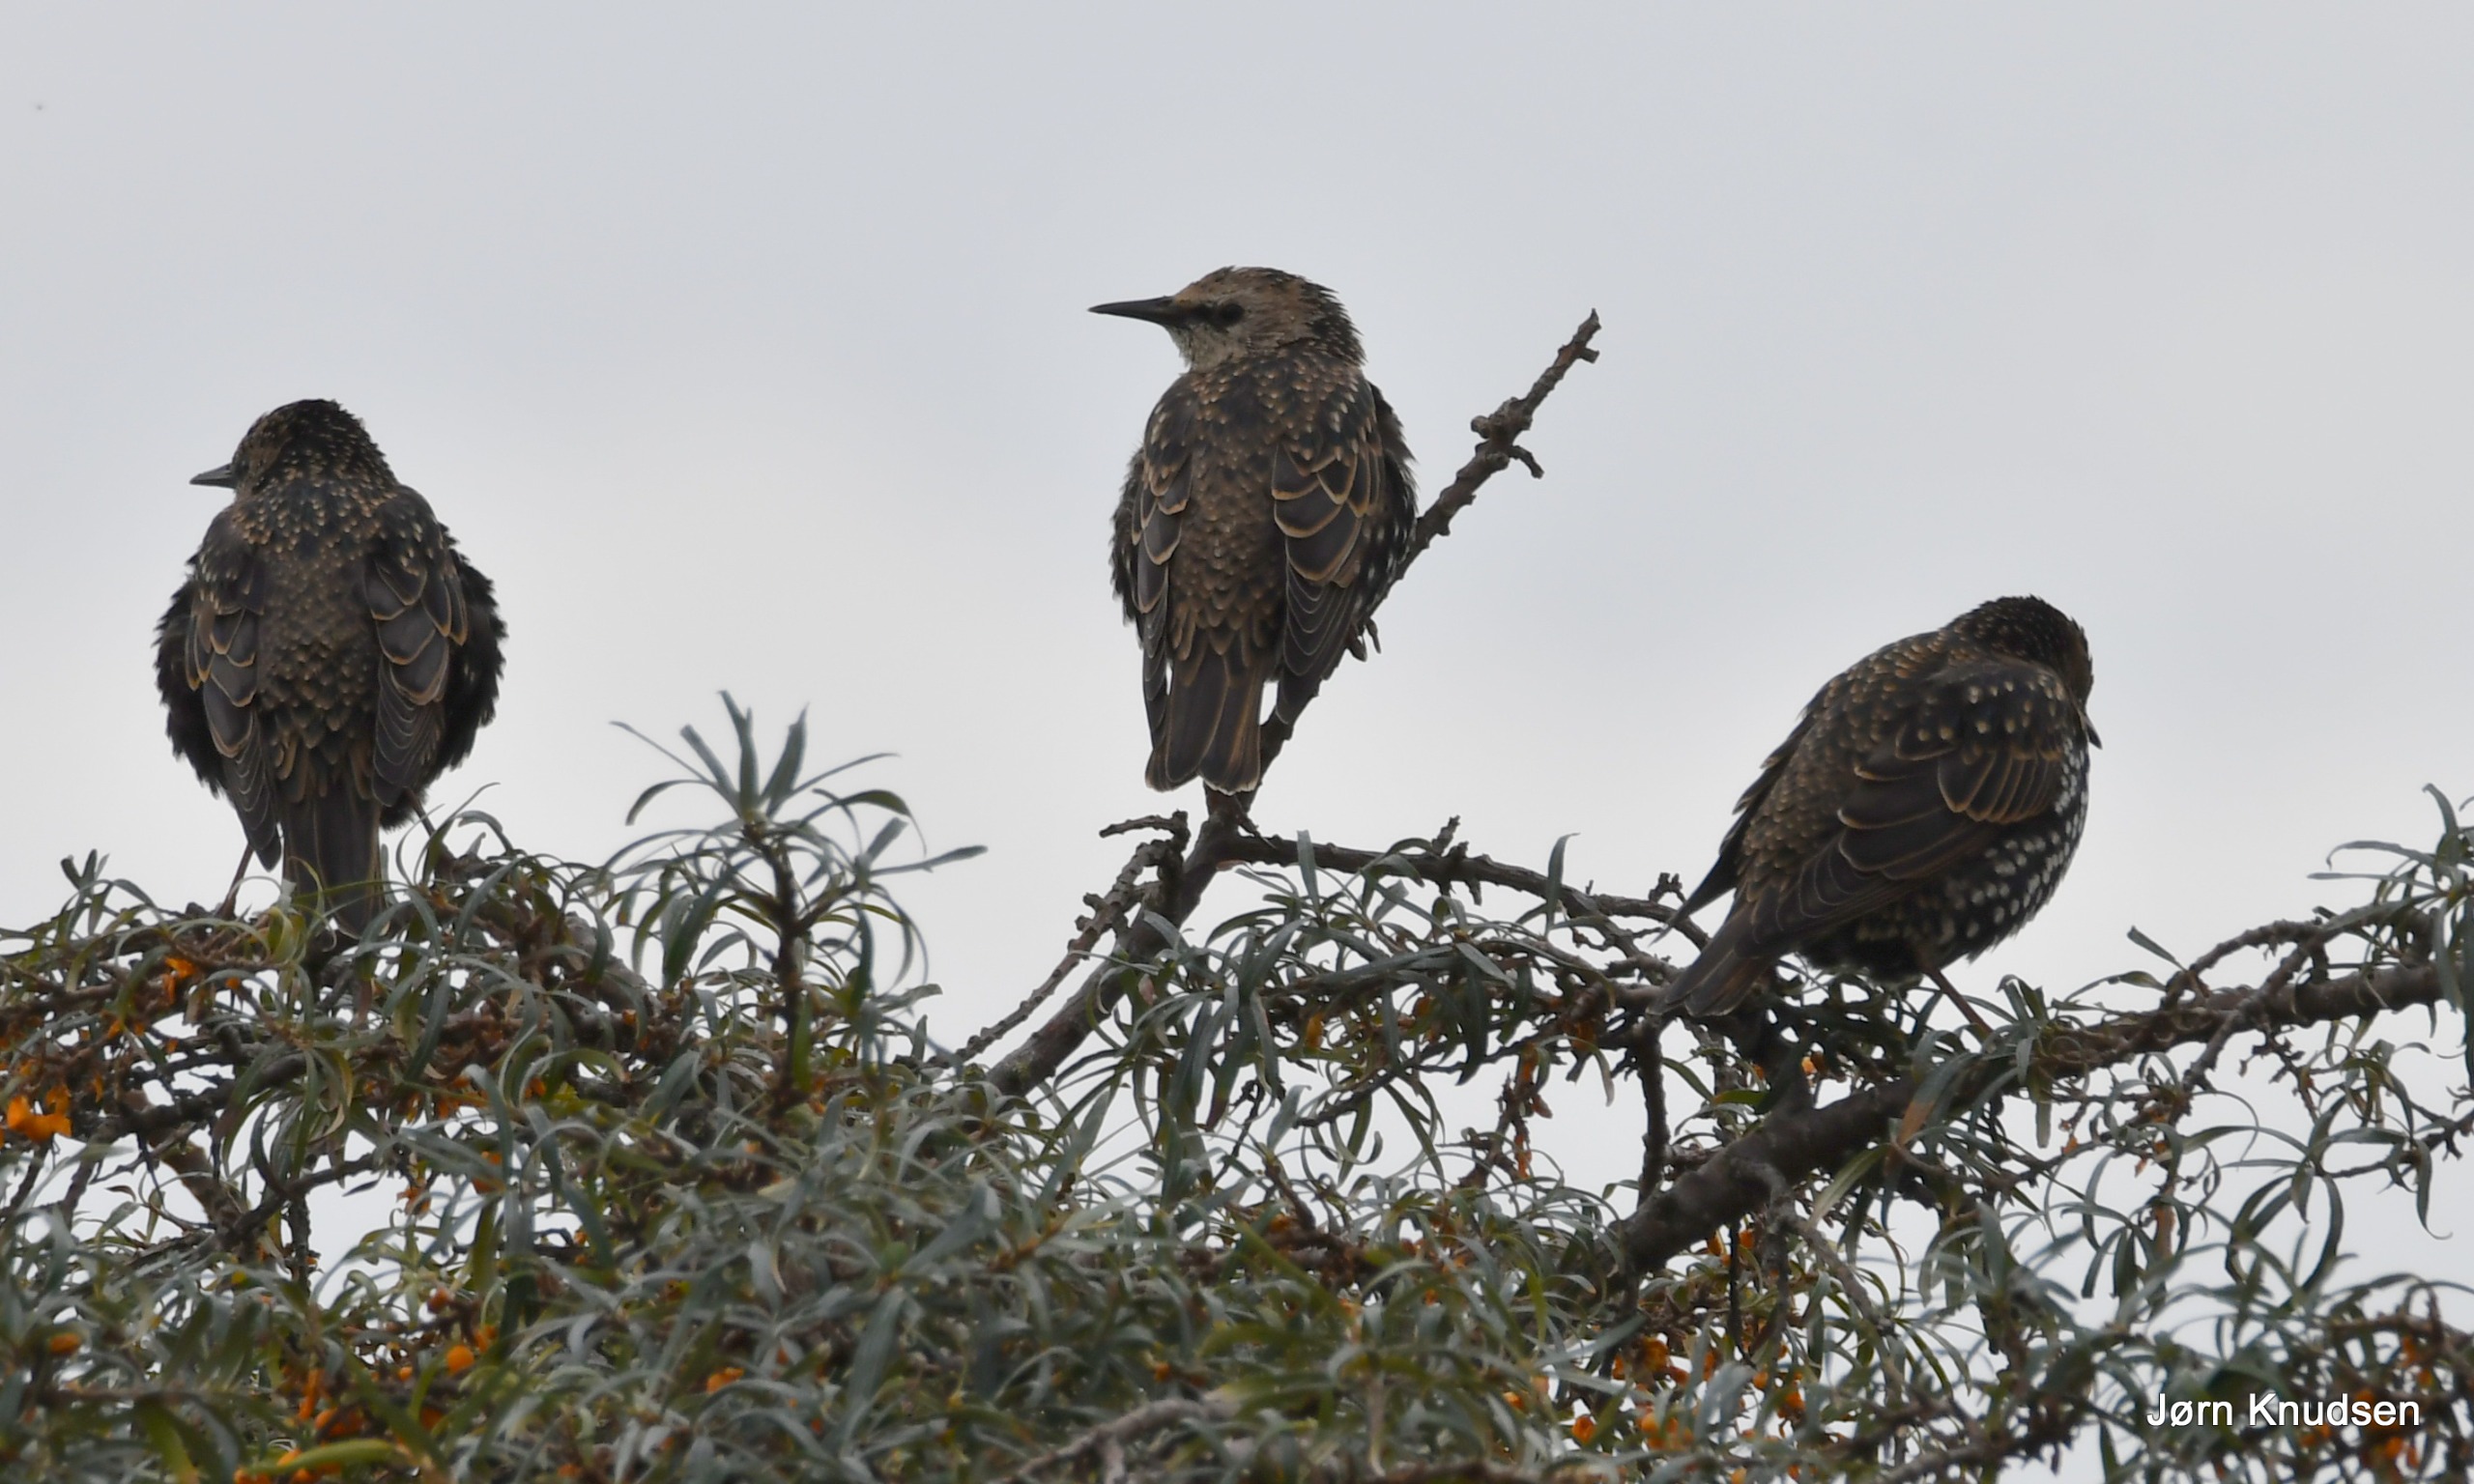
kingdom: Animalia
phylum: Chordata
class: Aves
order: Passeriformes
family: Sturnidae
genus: Sturnus
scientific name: Sturnus vulgaris
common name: Stær
